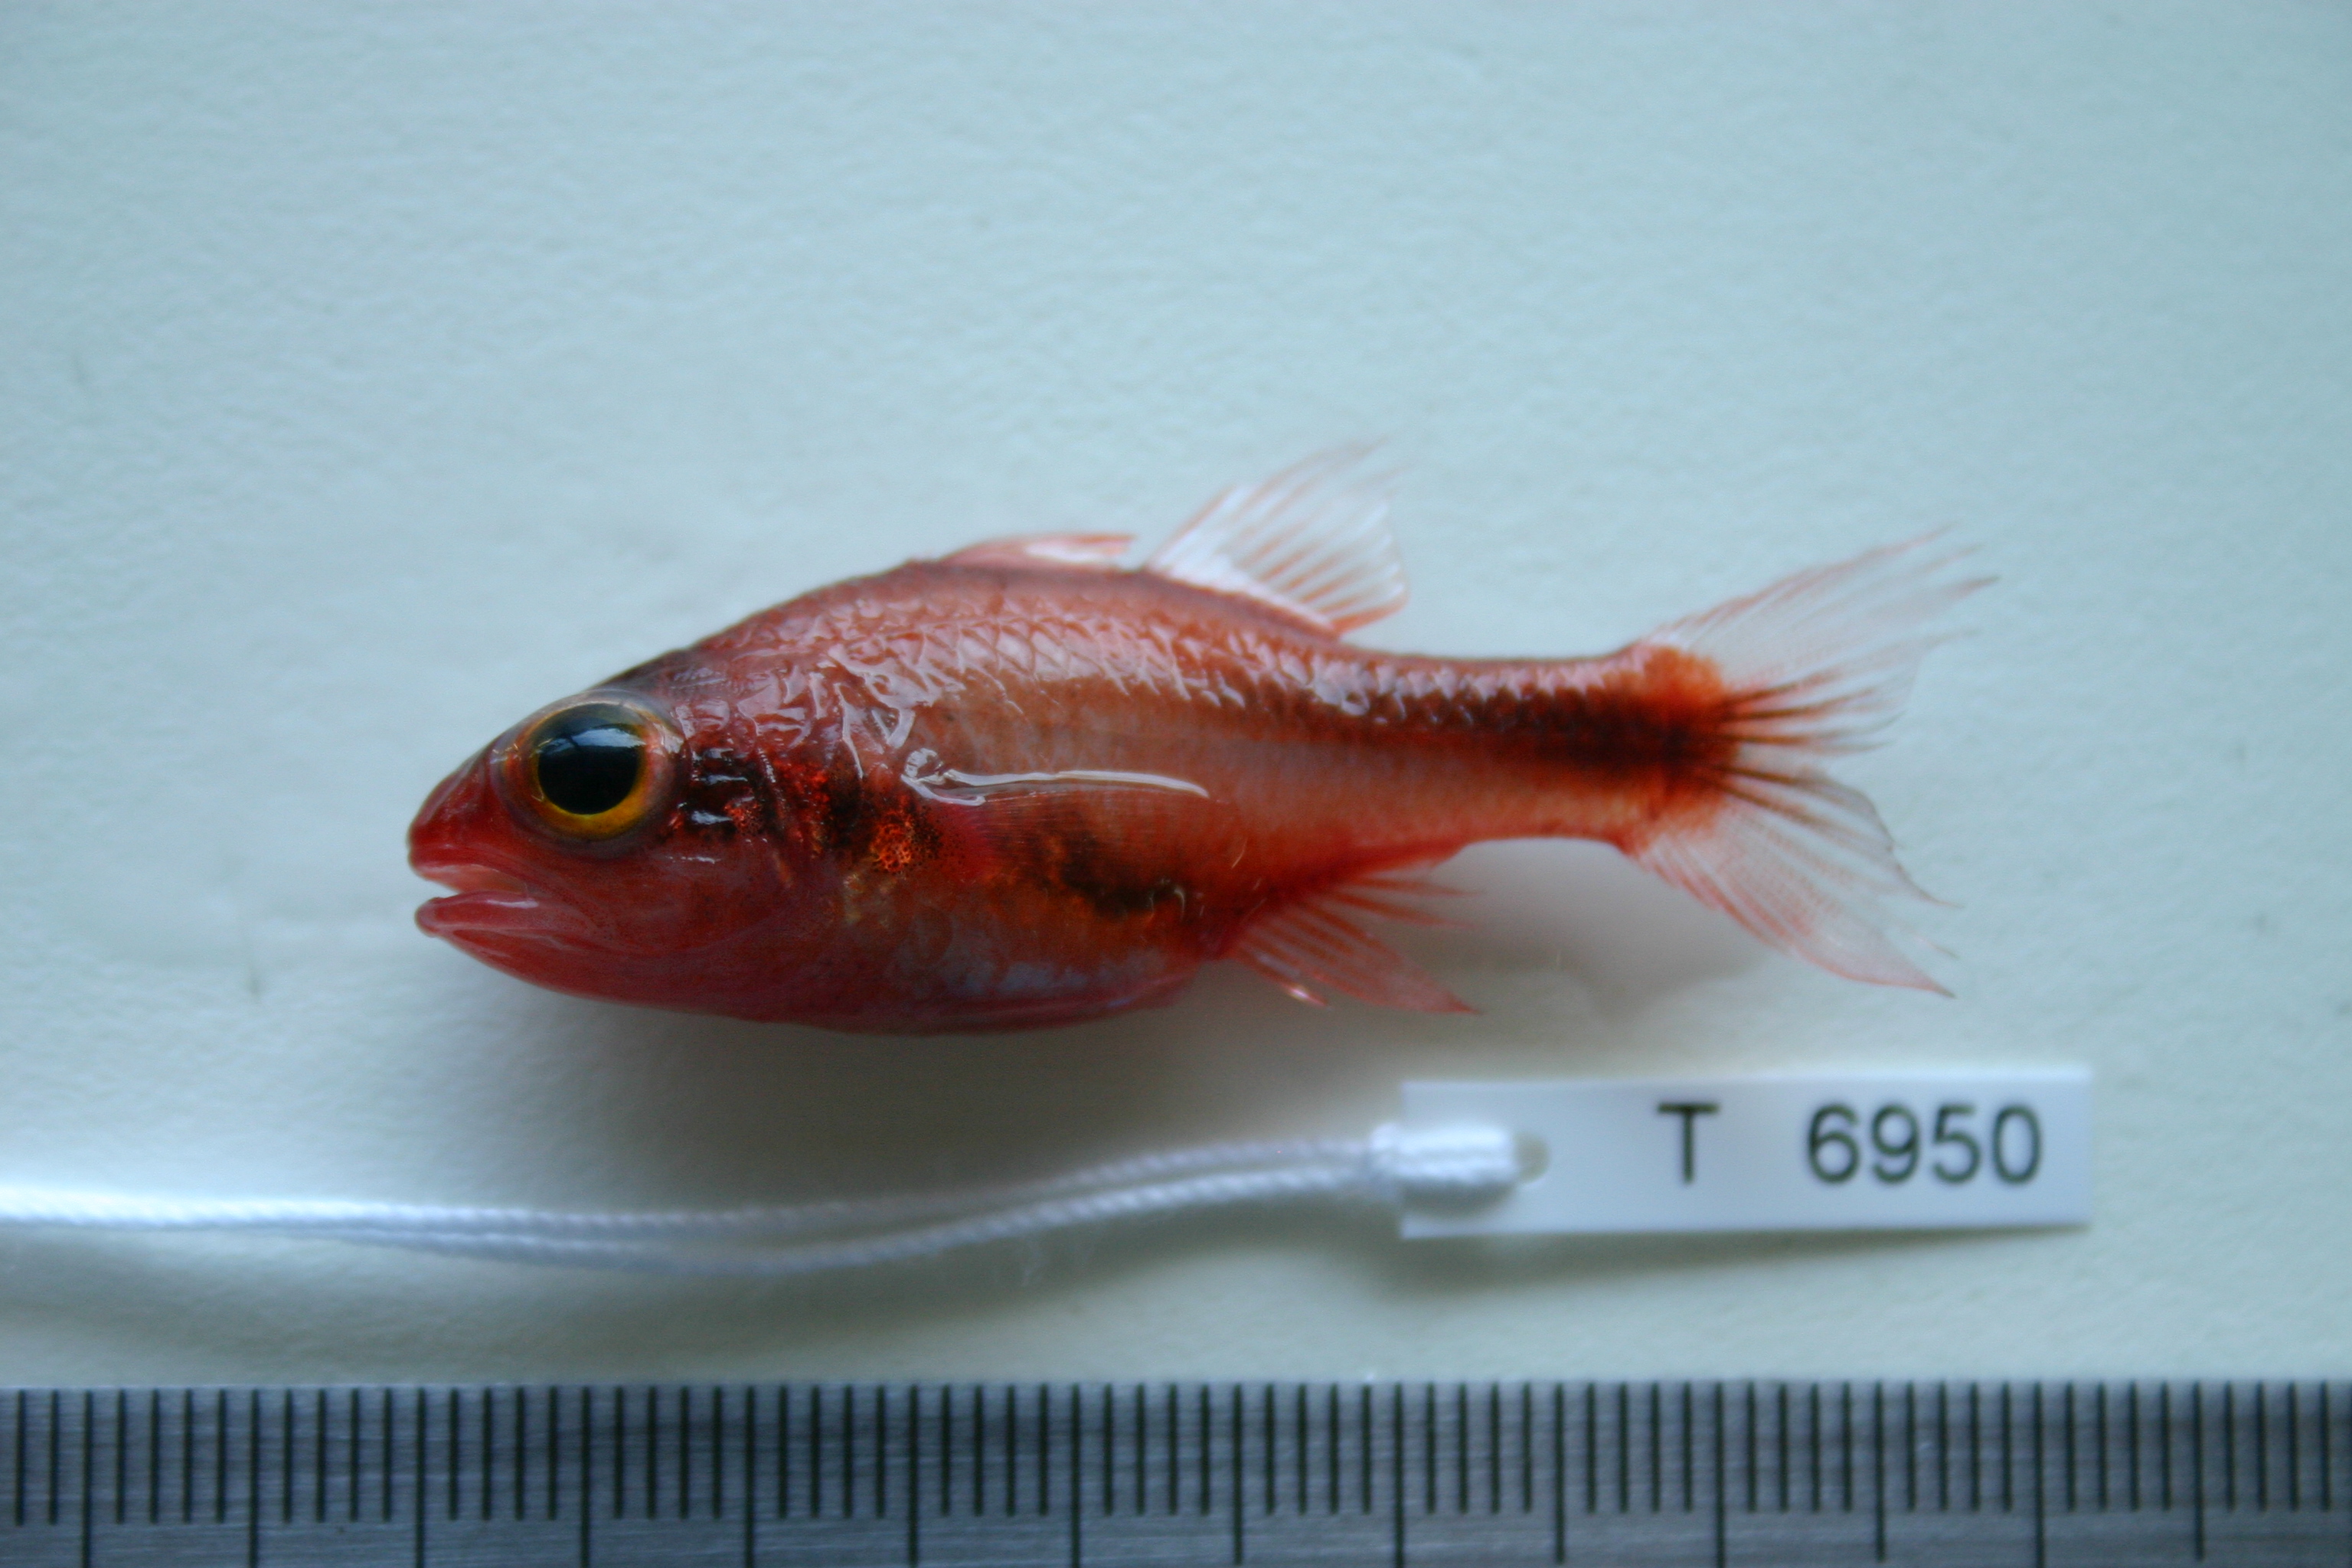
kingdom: Animalia
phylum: Chordata
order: Perciformes
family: Apogonidae
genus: Apogon
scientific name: Apogon semiornatus
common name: Threeband cardinalfish
